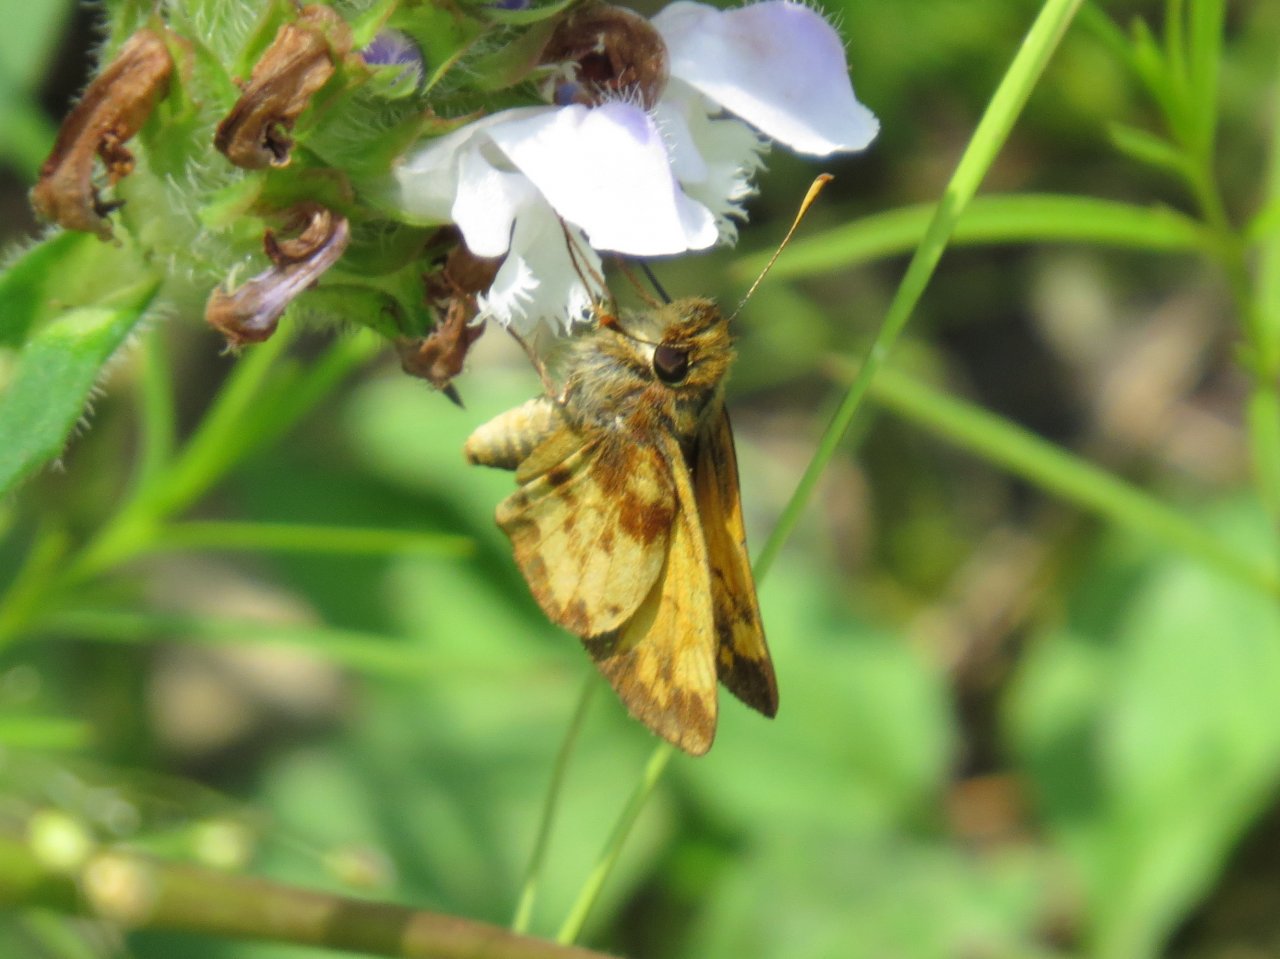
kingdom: Animalia
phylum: Arthropoda
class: Insecta
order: Lepidoptera
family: Hesperiidae
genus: Lon
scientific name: Lon zabulon
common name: Zabulon Skipper
